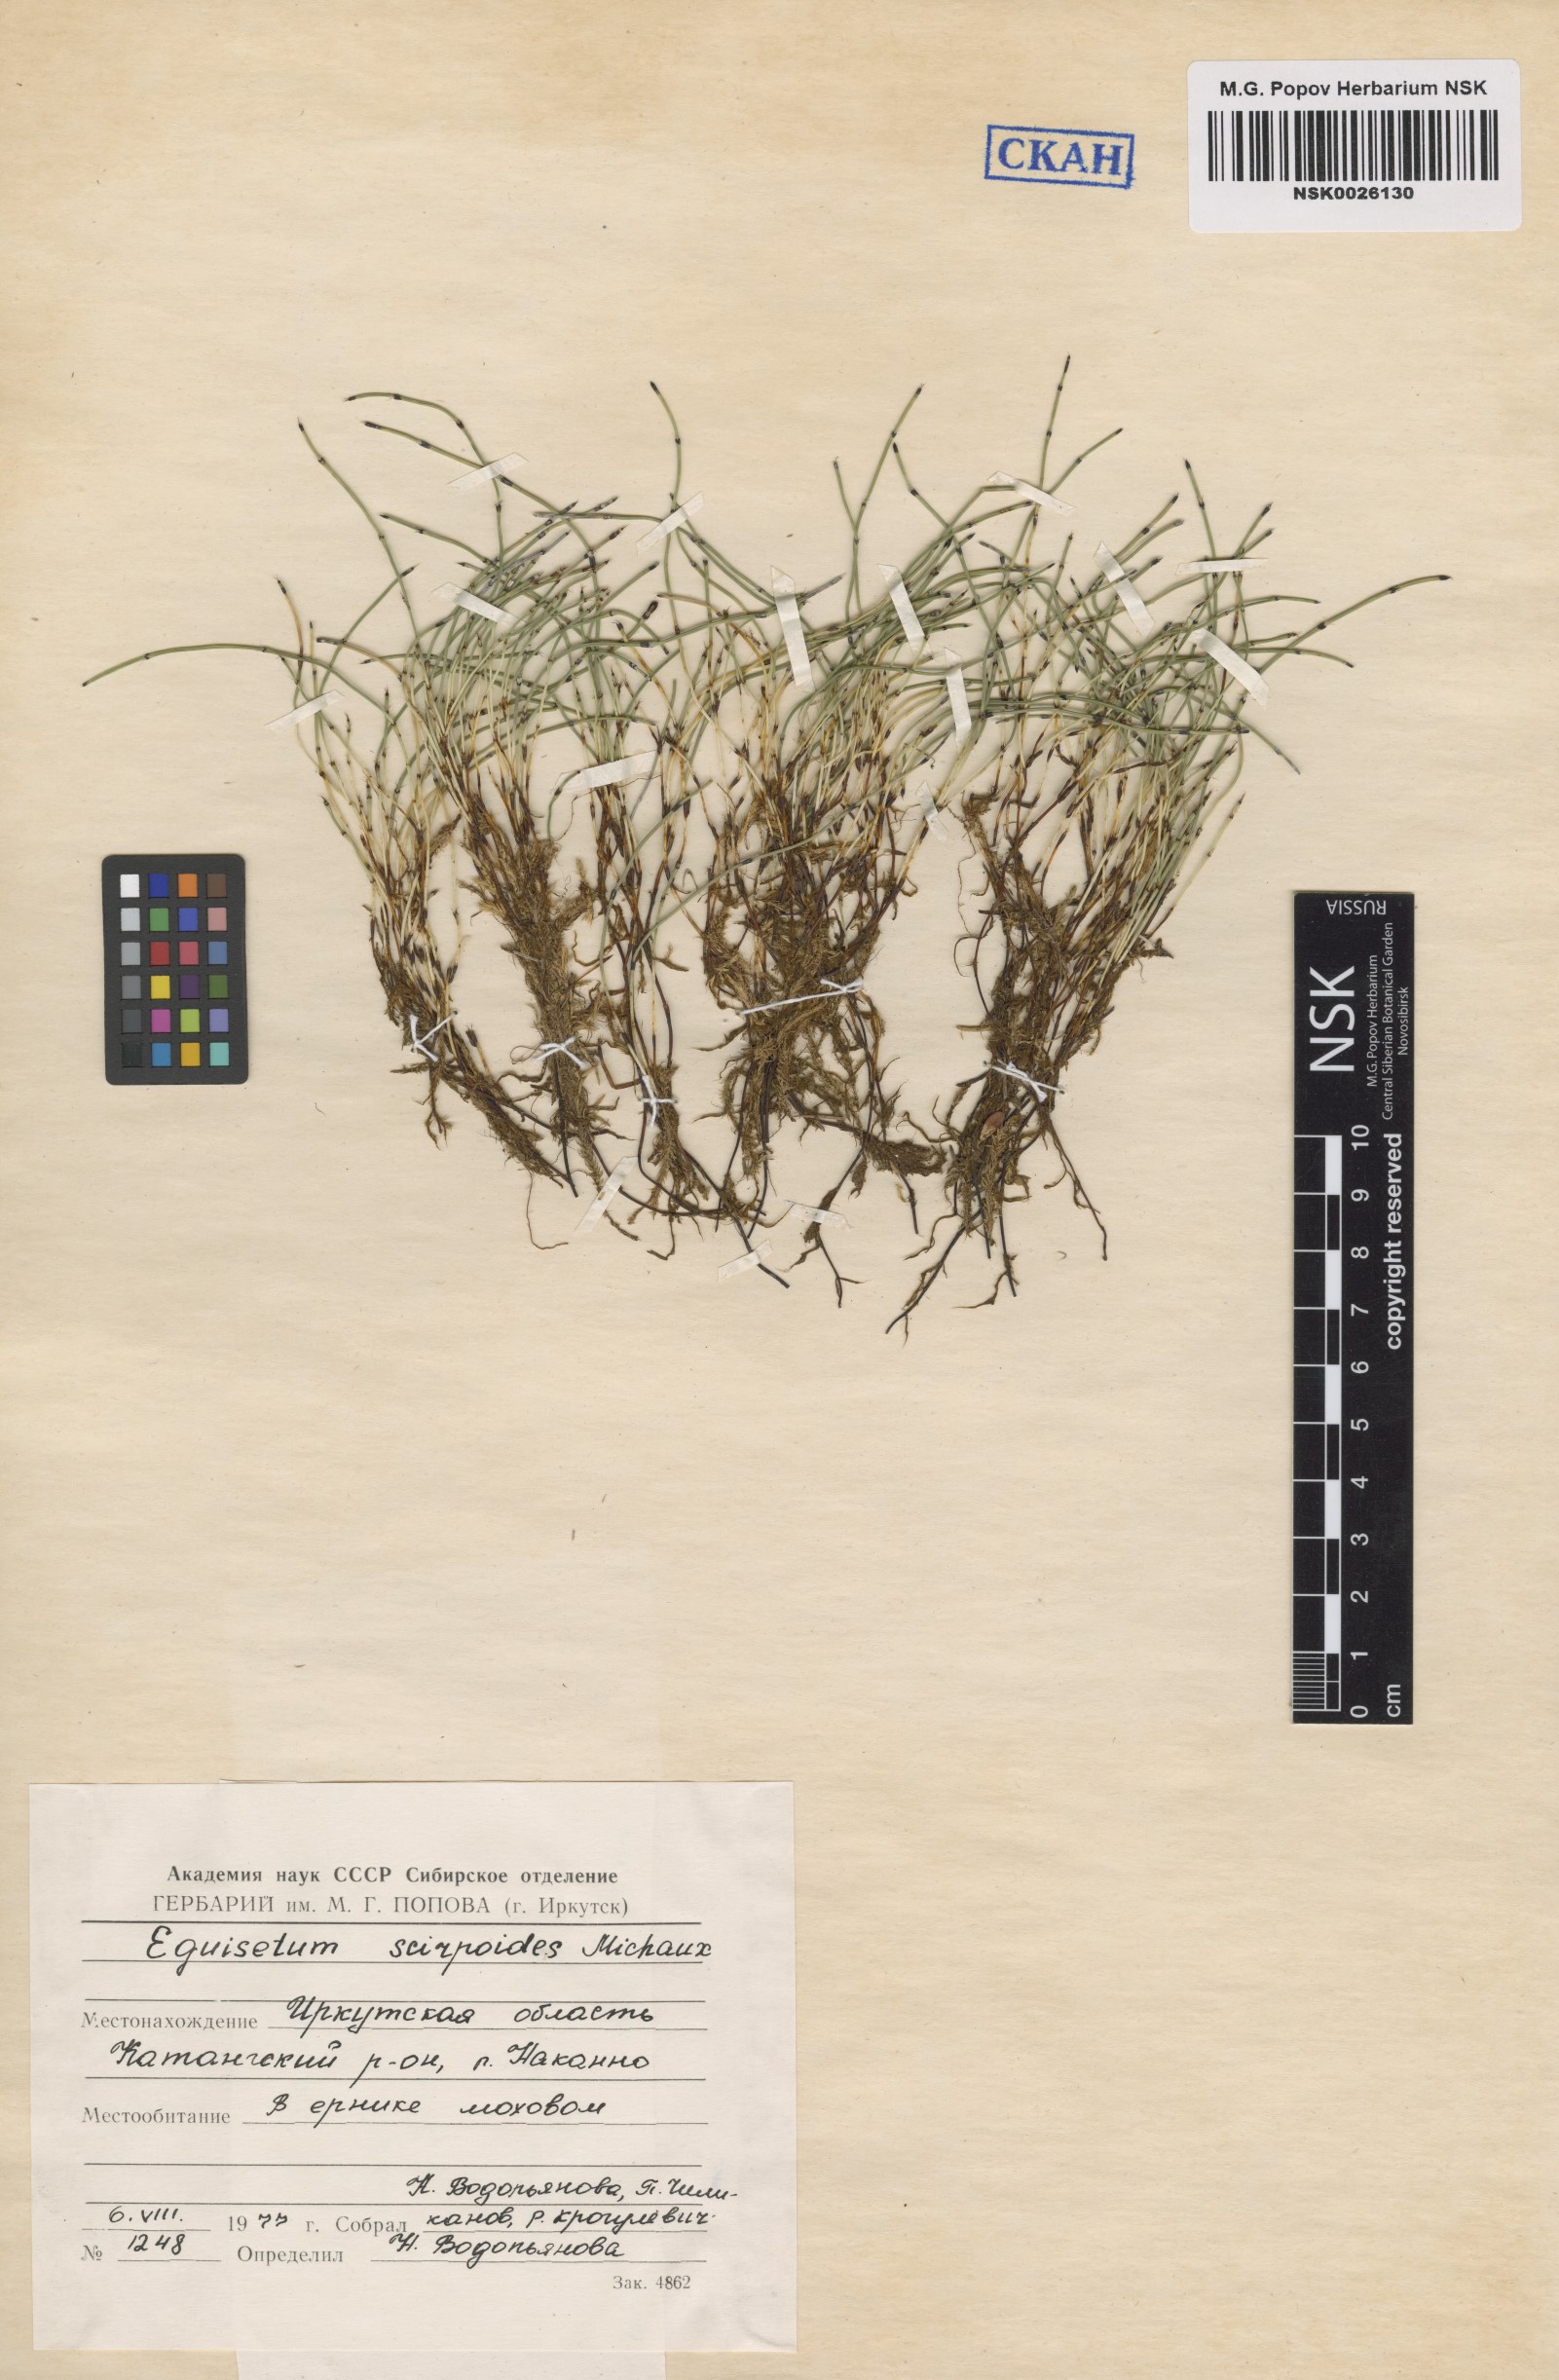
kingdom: Plantae
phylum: Tracheophyta
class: Polypodiopsida
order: Equisetales
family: Equisetaceae
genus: Equisetum
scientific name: Equisetum scirpoides
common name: Delicate horsetail
